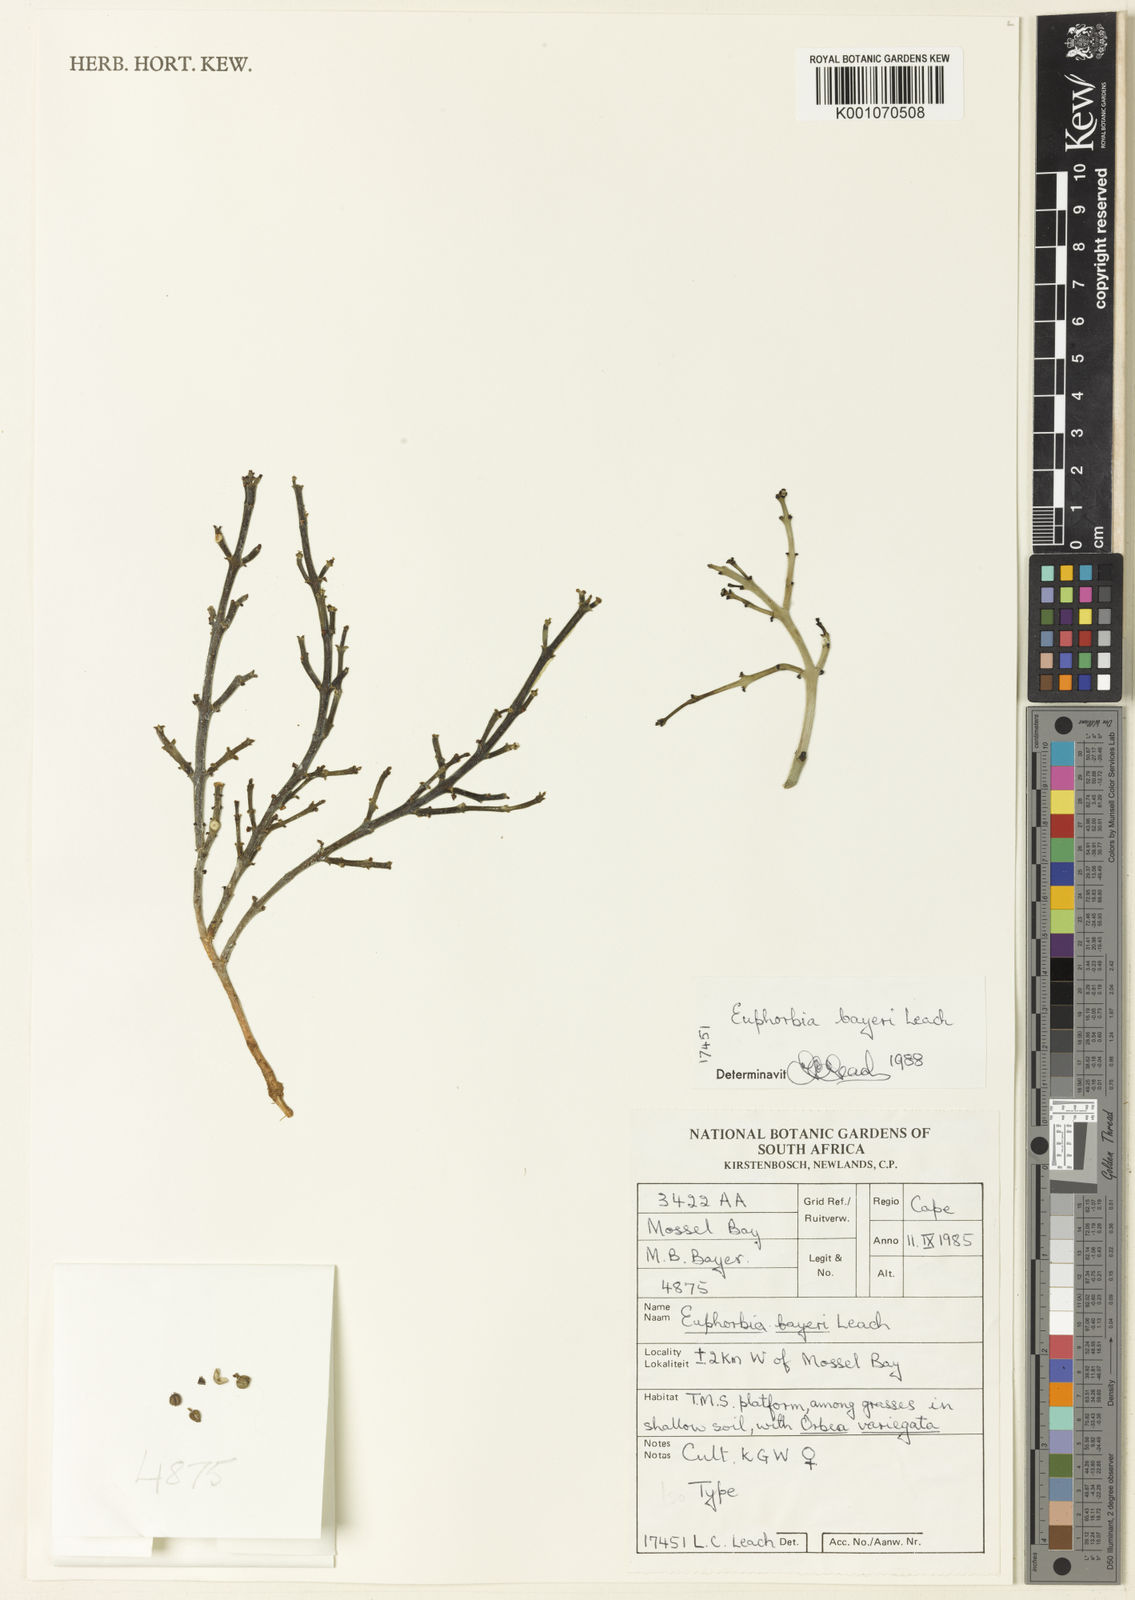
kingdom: Plantae
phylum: Tracheophyta
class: Magnoliopsida
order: Malpighiales
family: Euphorbiaceae
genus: Euphorbia
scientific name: Euphorbia rhombifolia
